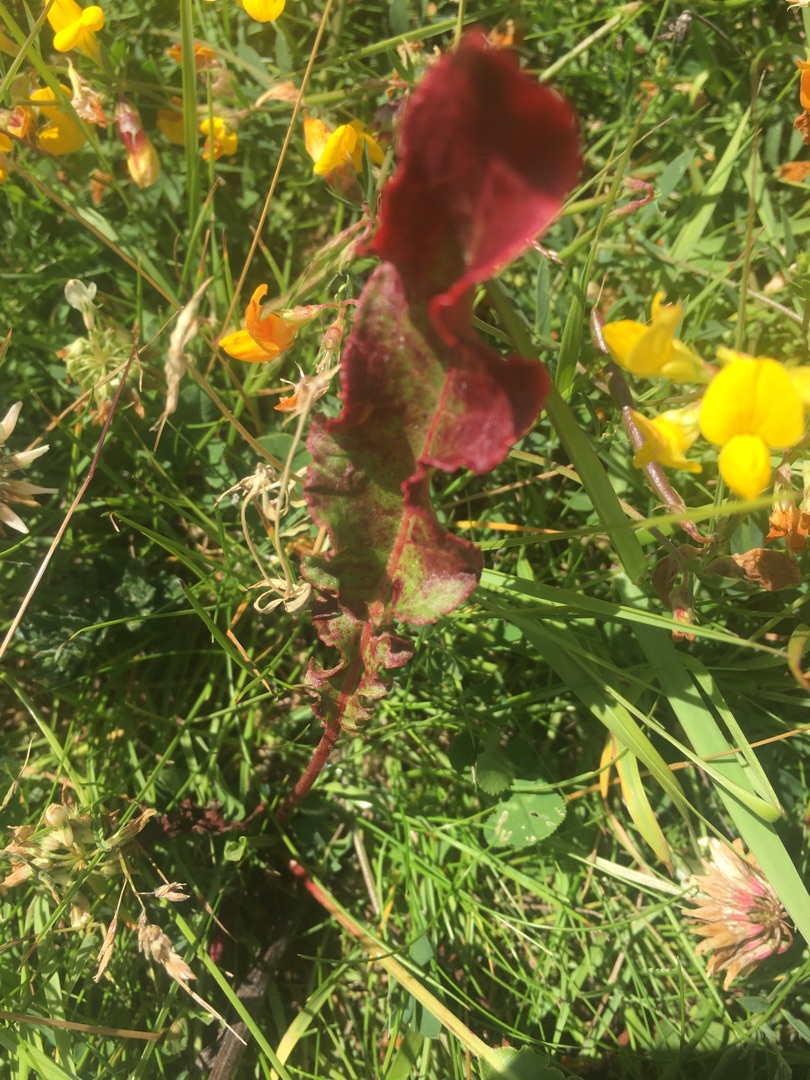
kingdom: Plantae
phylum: Tracheophyta
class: Magnoliopsida
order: Caryophyllales
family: Polygonaceae
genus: Rumex
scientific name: Rumex crispus
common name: Kruset skræppe
